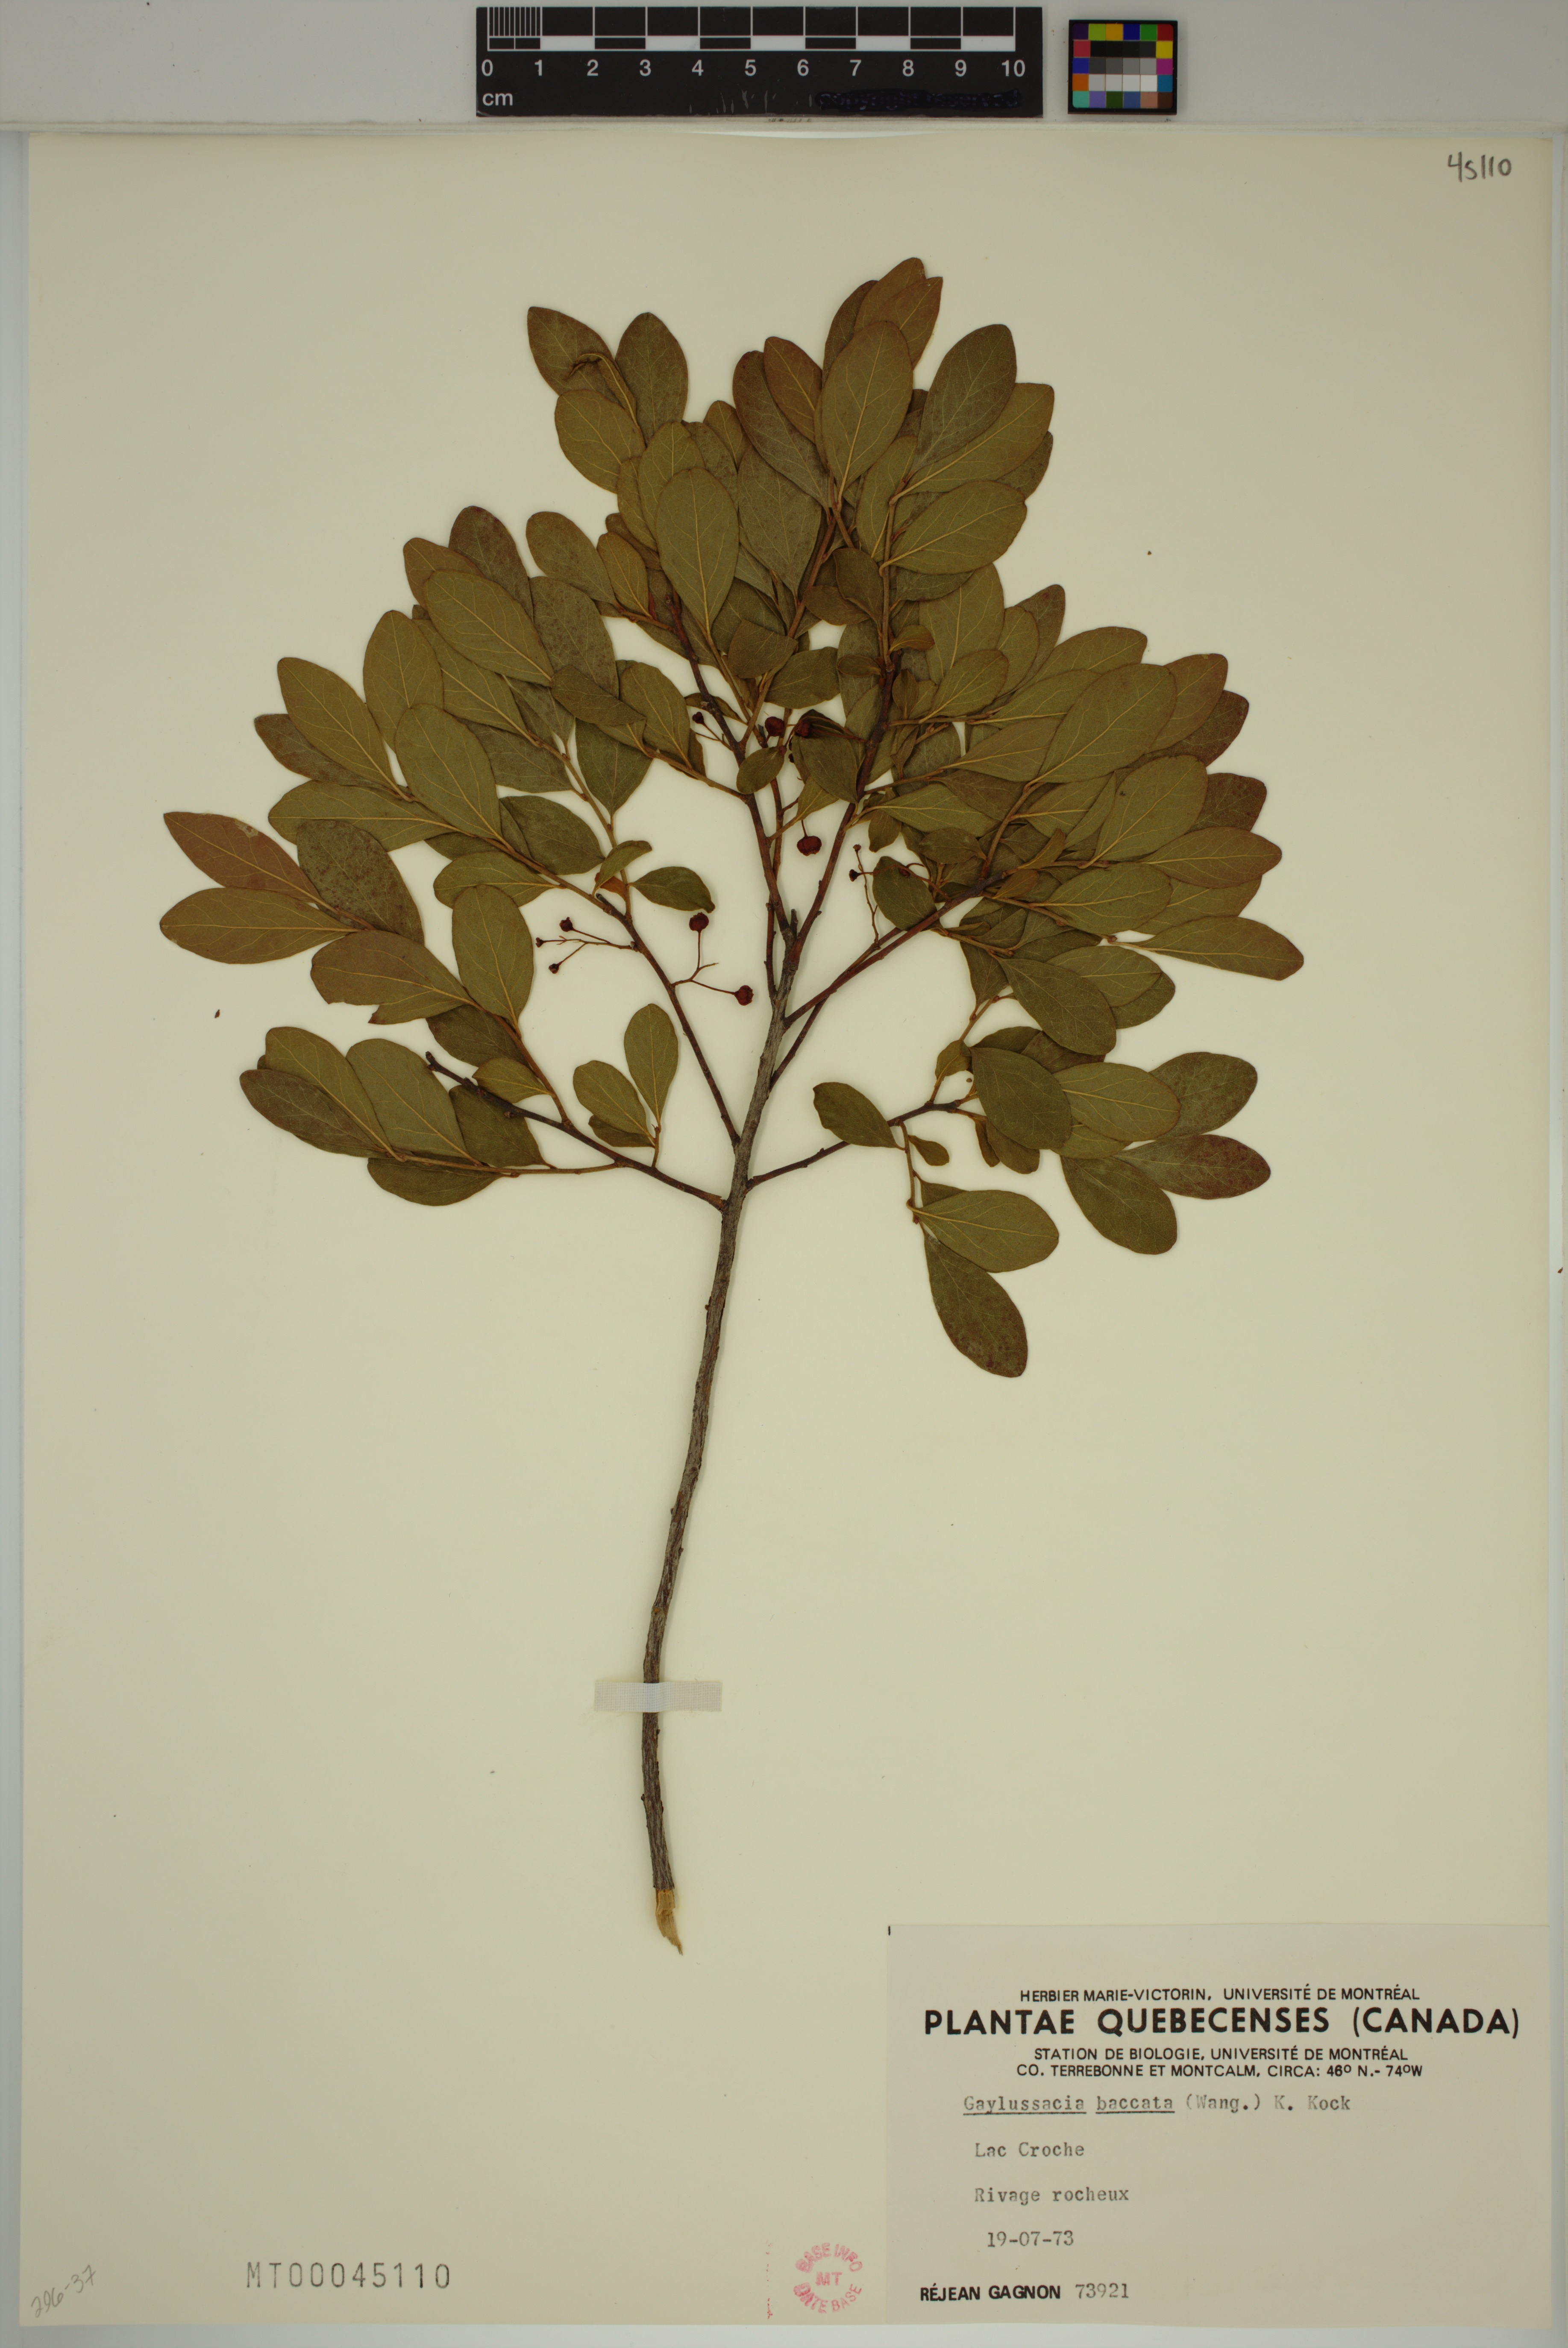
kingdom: Plantae
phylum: Tracheophyta
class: Magnoliopsida
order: Ericales
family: Ericaceae
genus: Gaylussacia
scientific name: Gaylussacia baccata
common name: Black huckleberry
